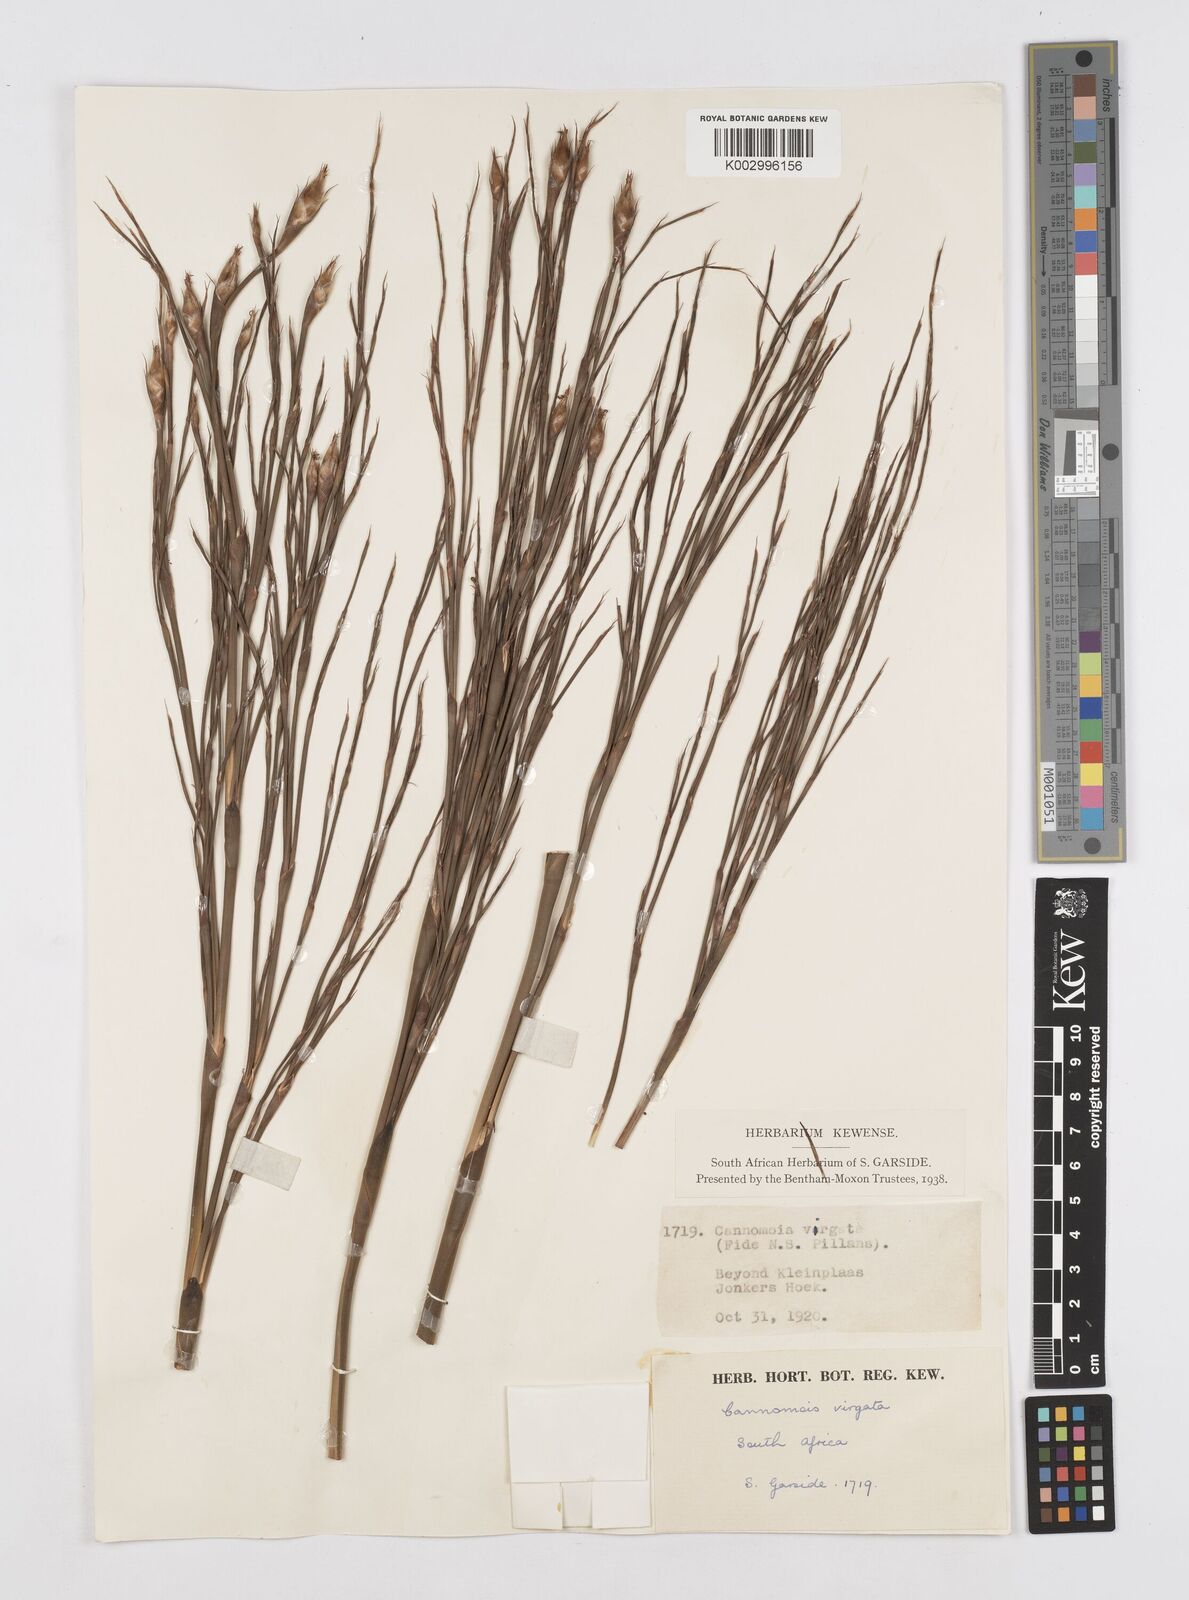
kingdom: Plantae
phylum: Tracheophyta
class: Liliopsida
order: Poales
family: Restionaceae
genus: Cannomois
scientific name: Cannomois virgata
